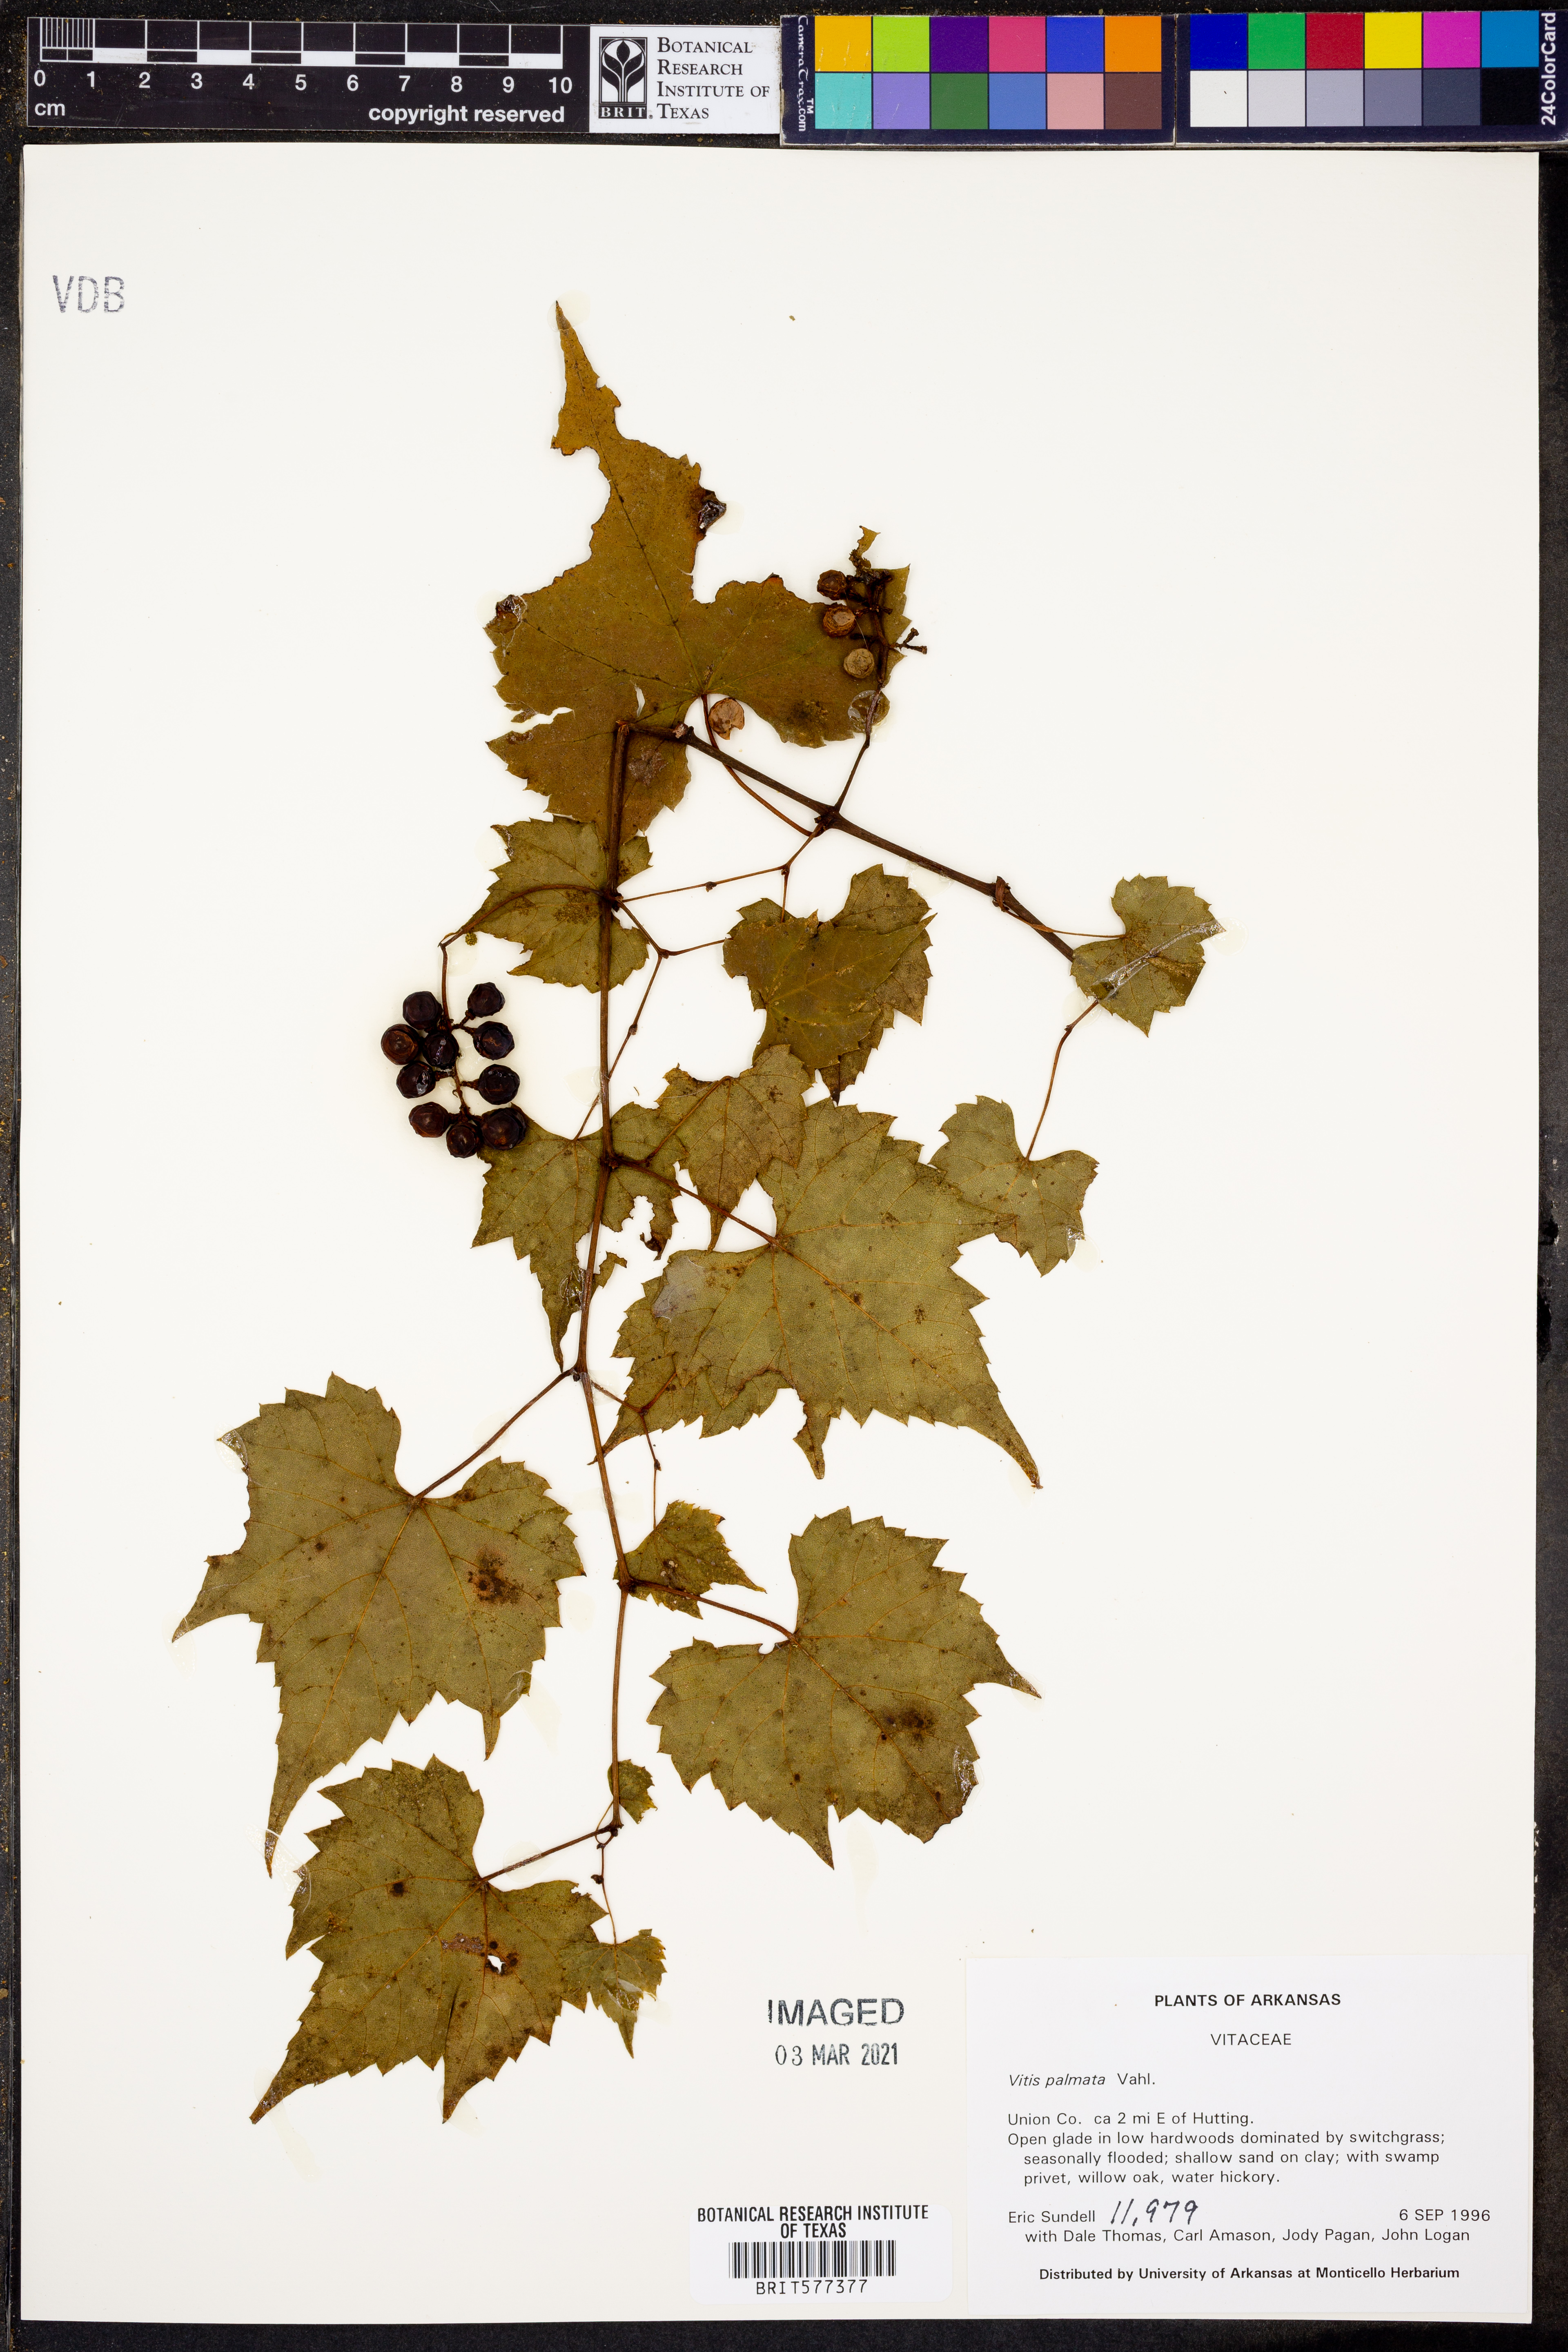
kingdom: Plantae
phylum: Tracheophyta
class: Magnoliopsida
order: Vitales
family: Vitaceae
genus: Vitis
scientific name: Vitis palmata
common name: Catbird grape
